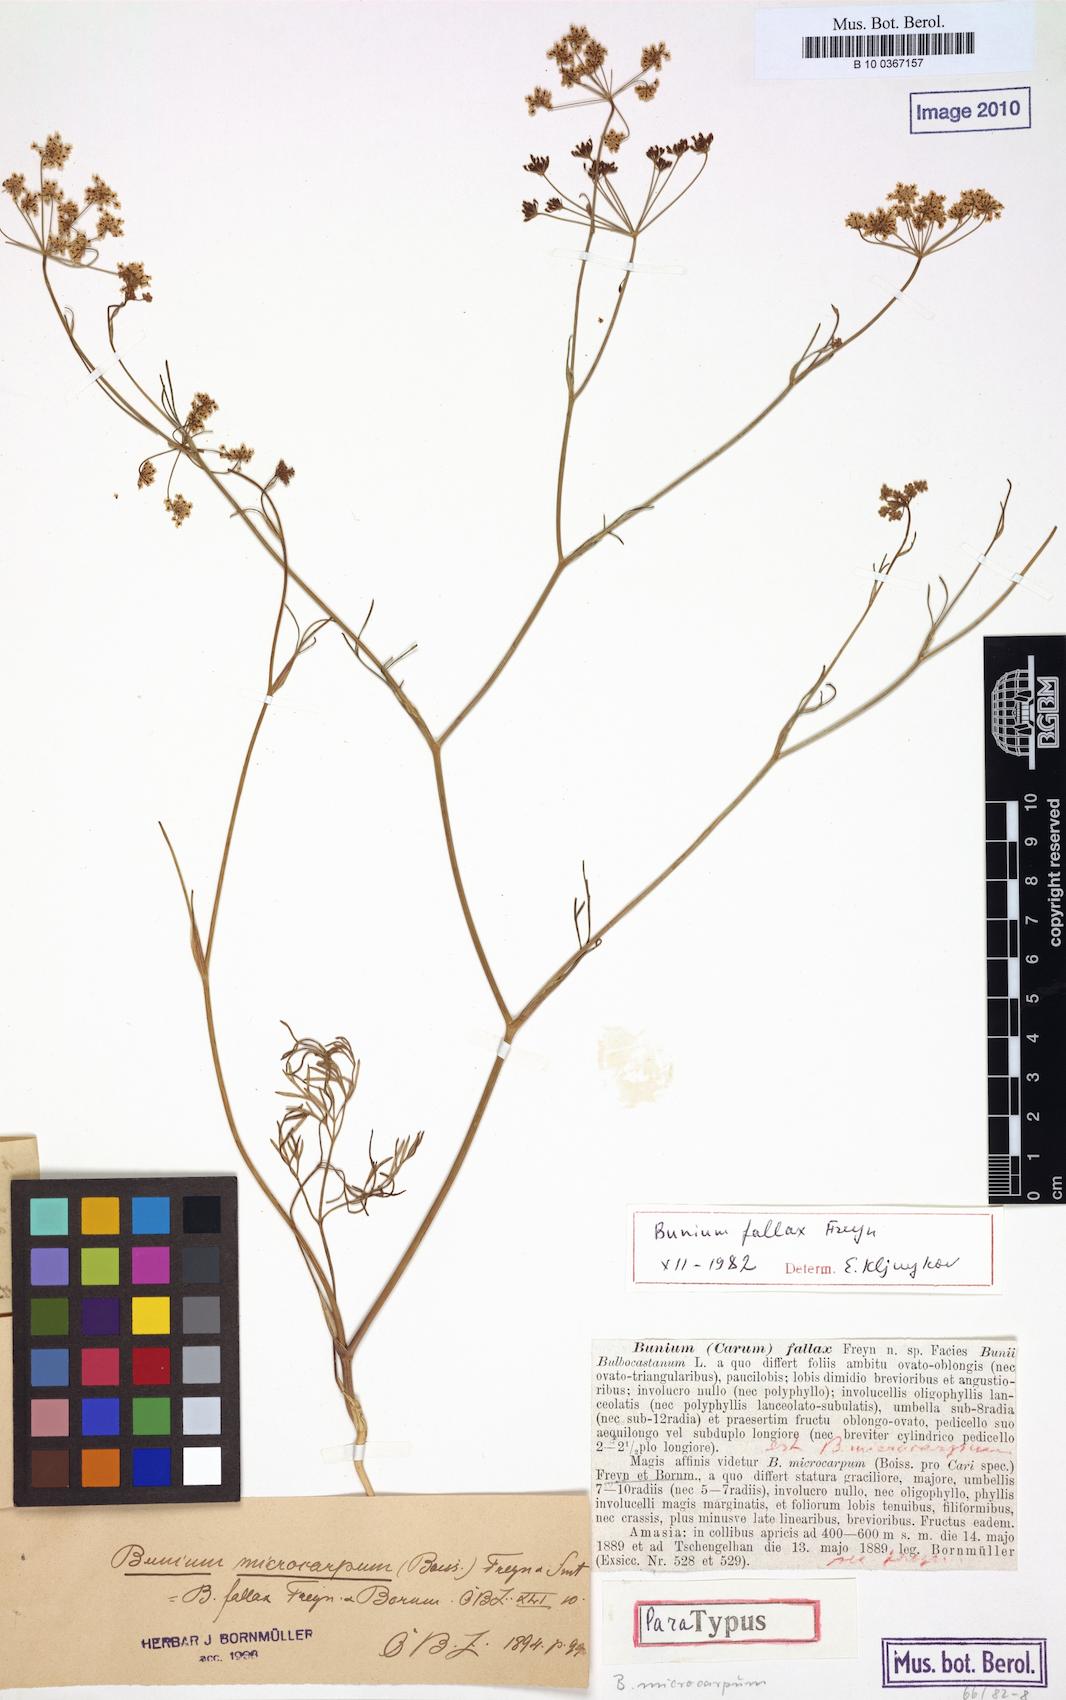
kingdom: Plantae
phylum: Tracheophyta
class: Magnoliopsida
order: Apiales
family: Apiaceae
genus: Bunium
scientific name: Bunium microcarpum
